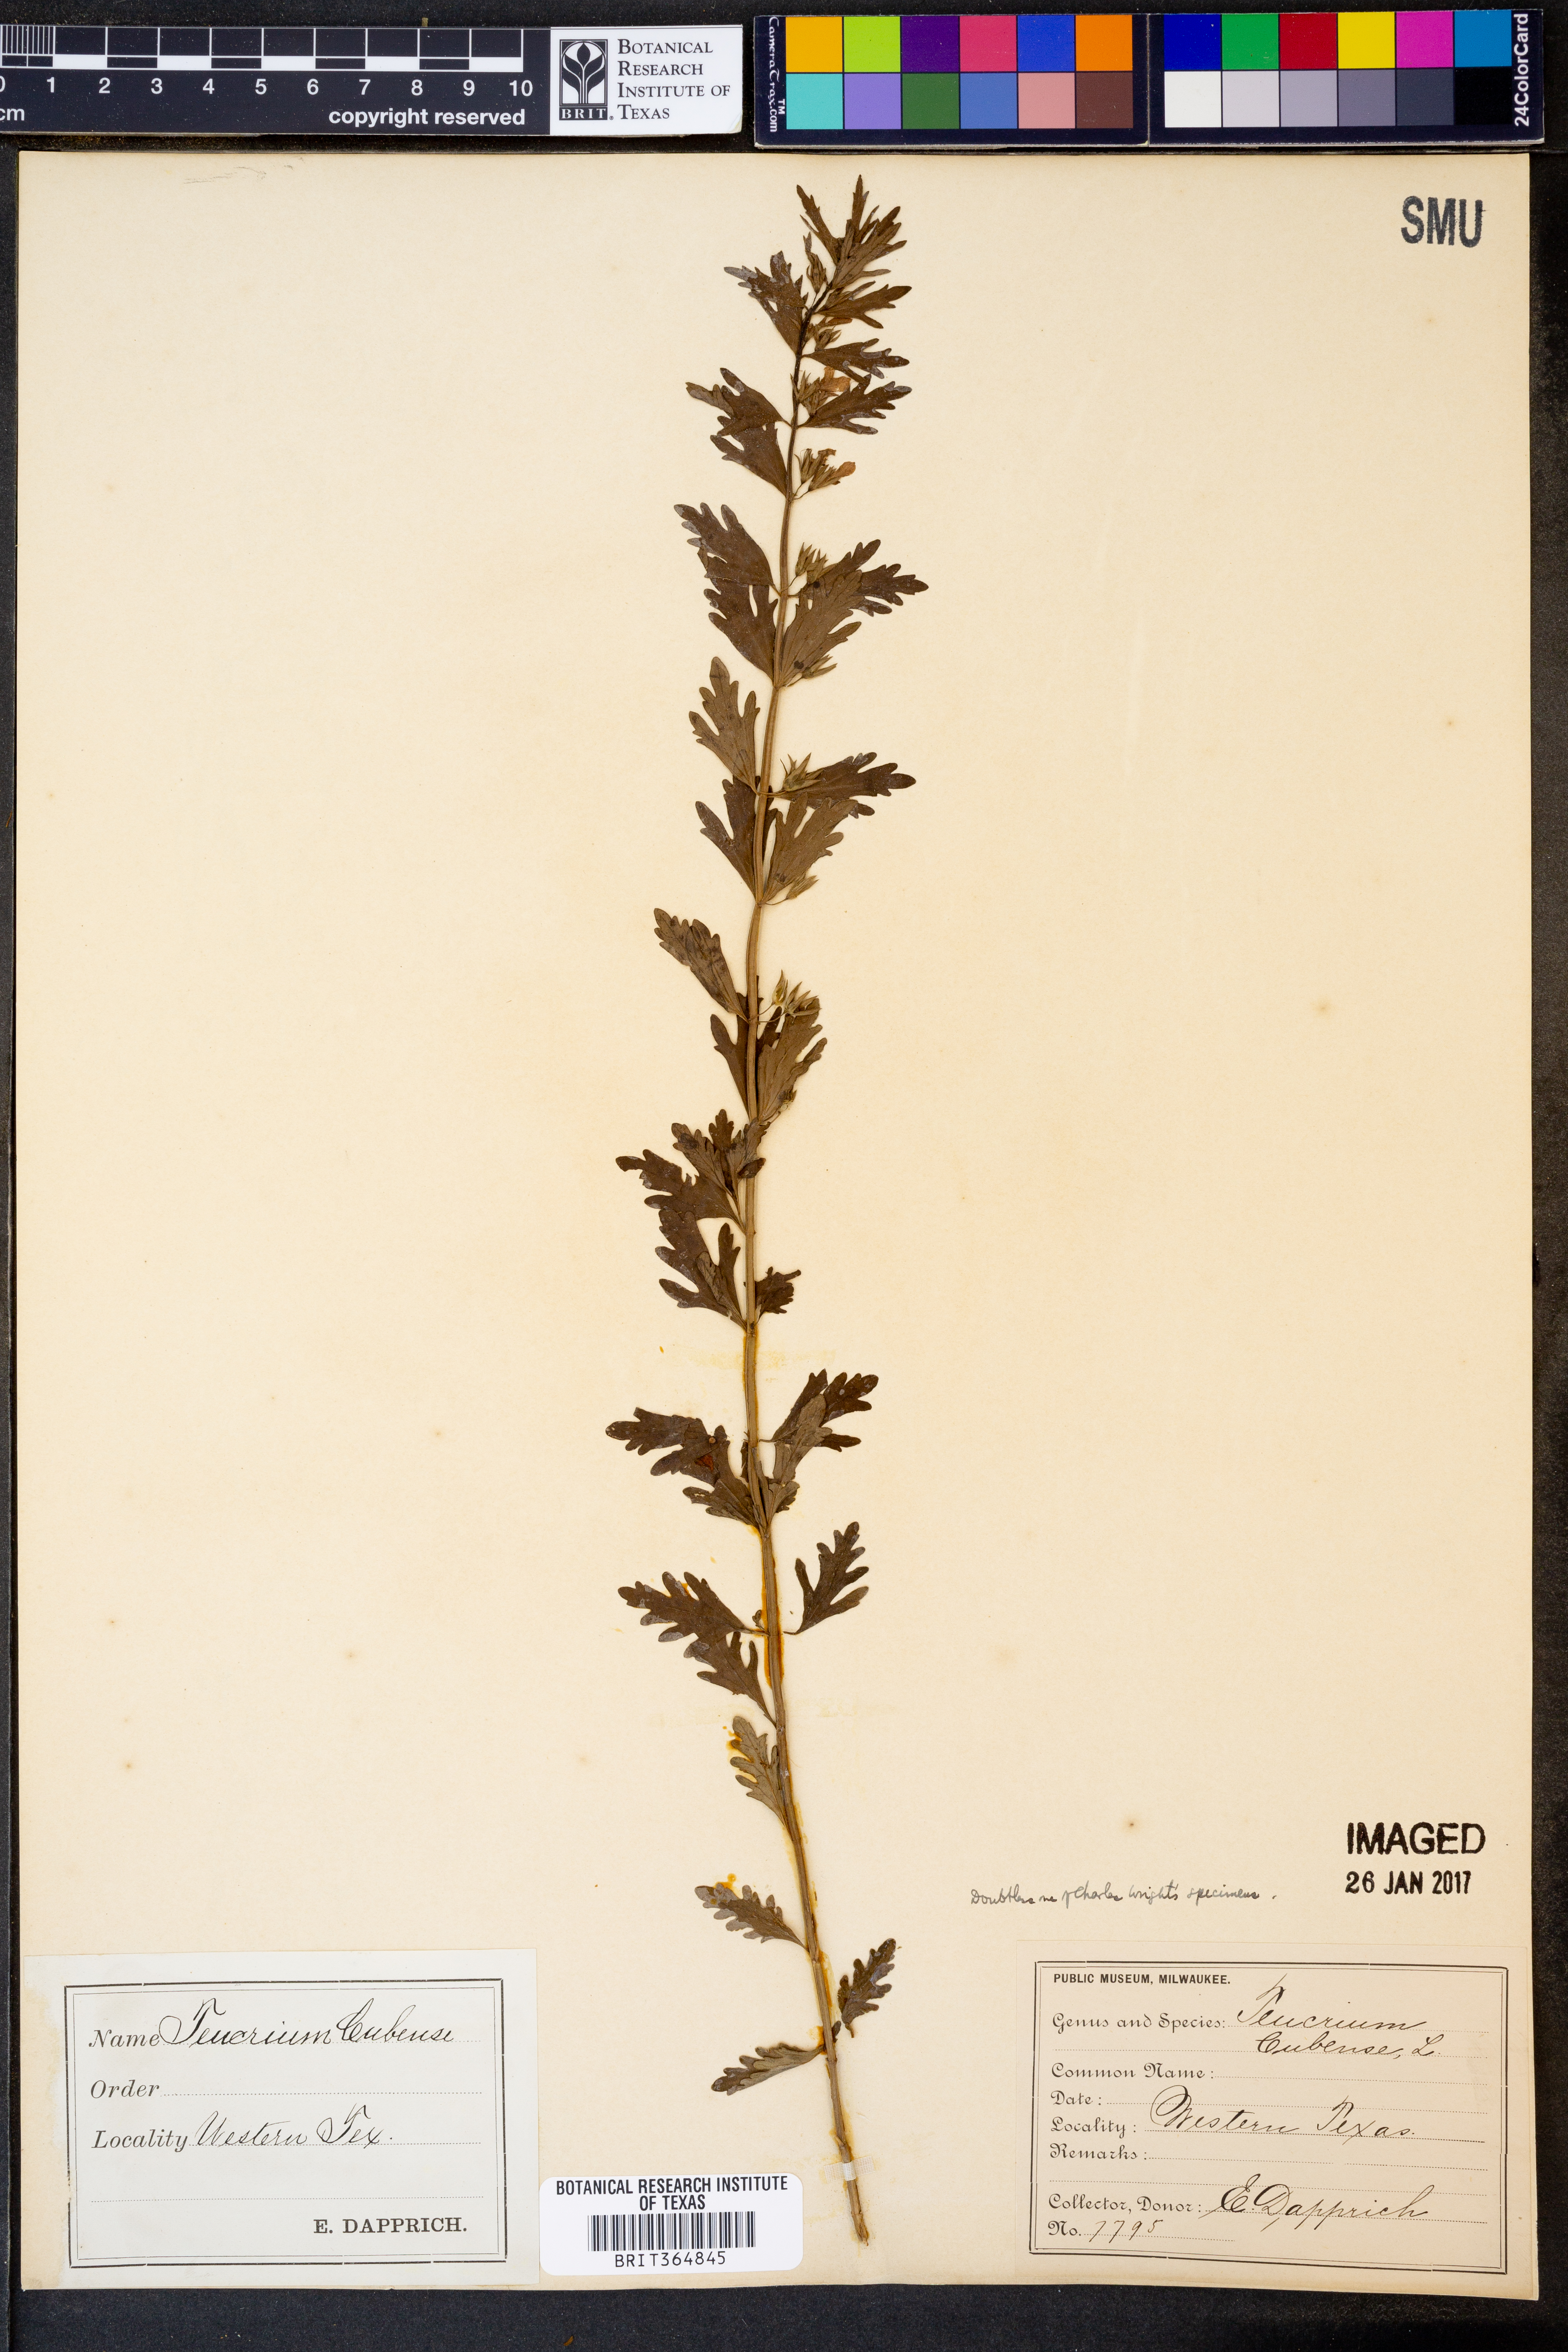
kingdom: Plantae
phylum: Tracheophyta
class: Magnoliopsida
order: Lamiales
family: Lamiaceae
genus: Teucrium
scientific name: Teucrium cubense
